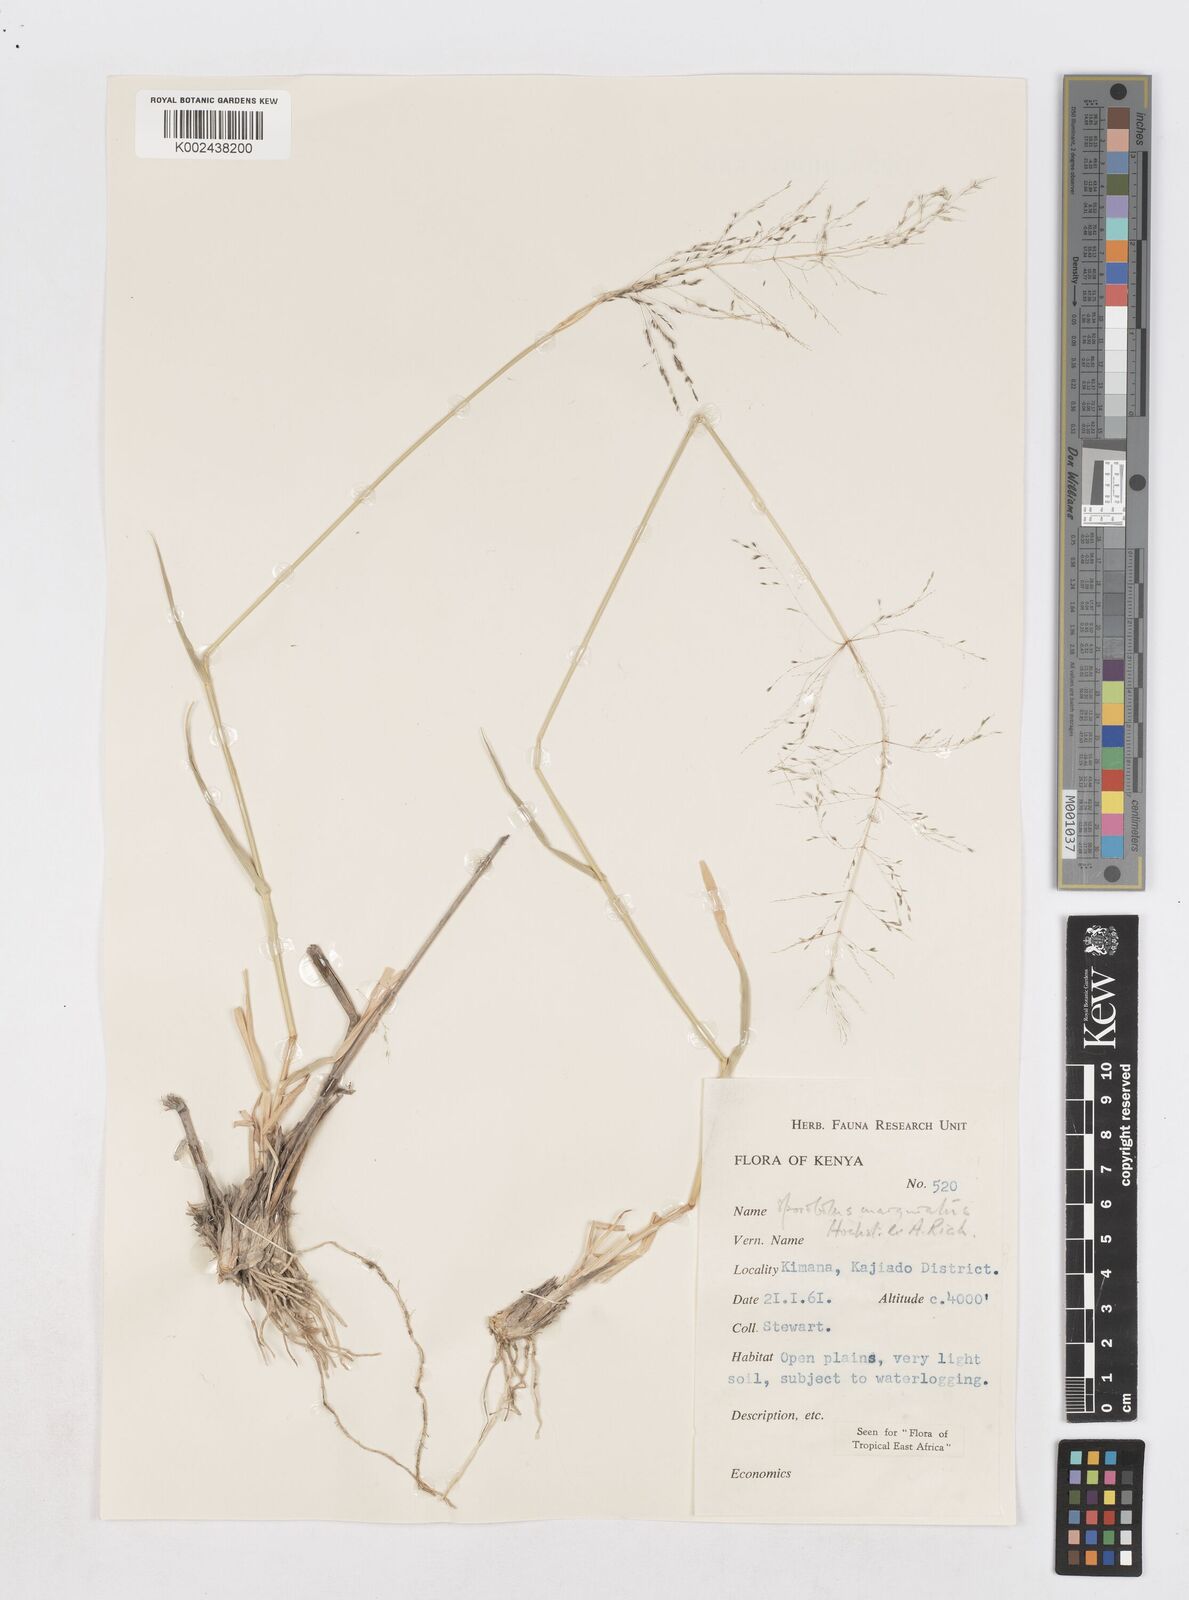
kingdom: Plantae
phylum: Tracheophyta
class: Liliopsida
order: Poales
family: Poaceae
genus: Sporobolus
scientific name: Sporobolus ioclados
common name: Pan dropseed
